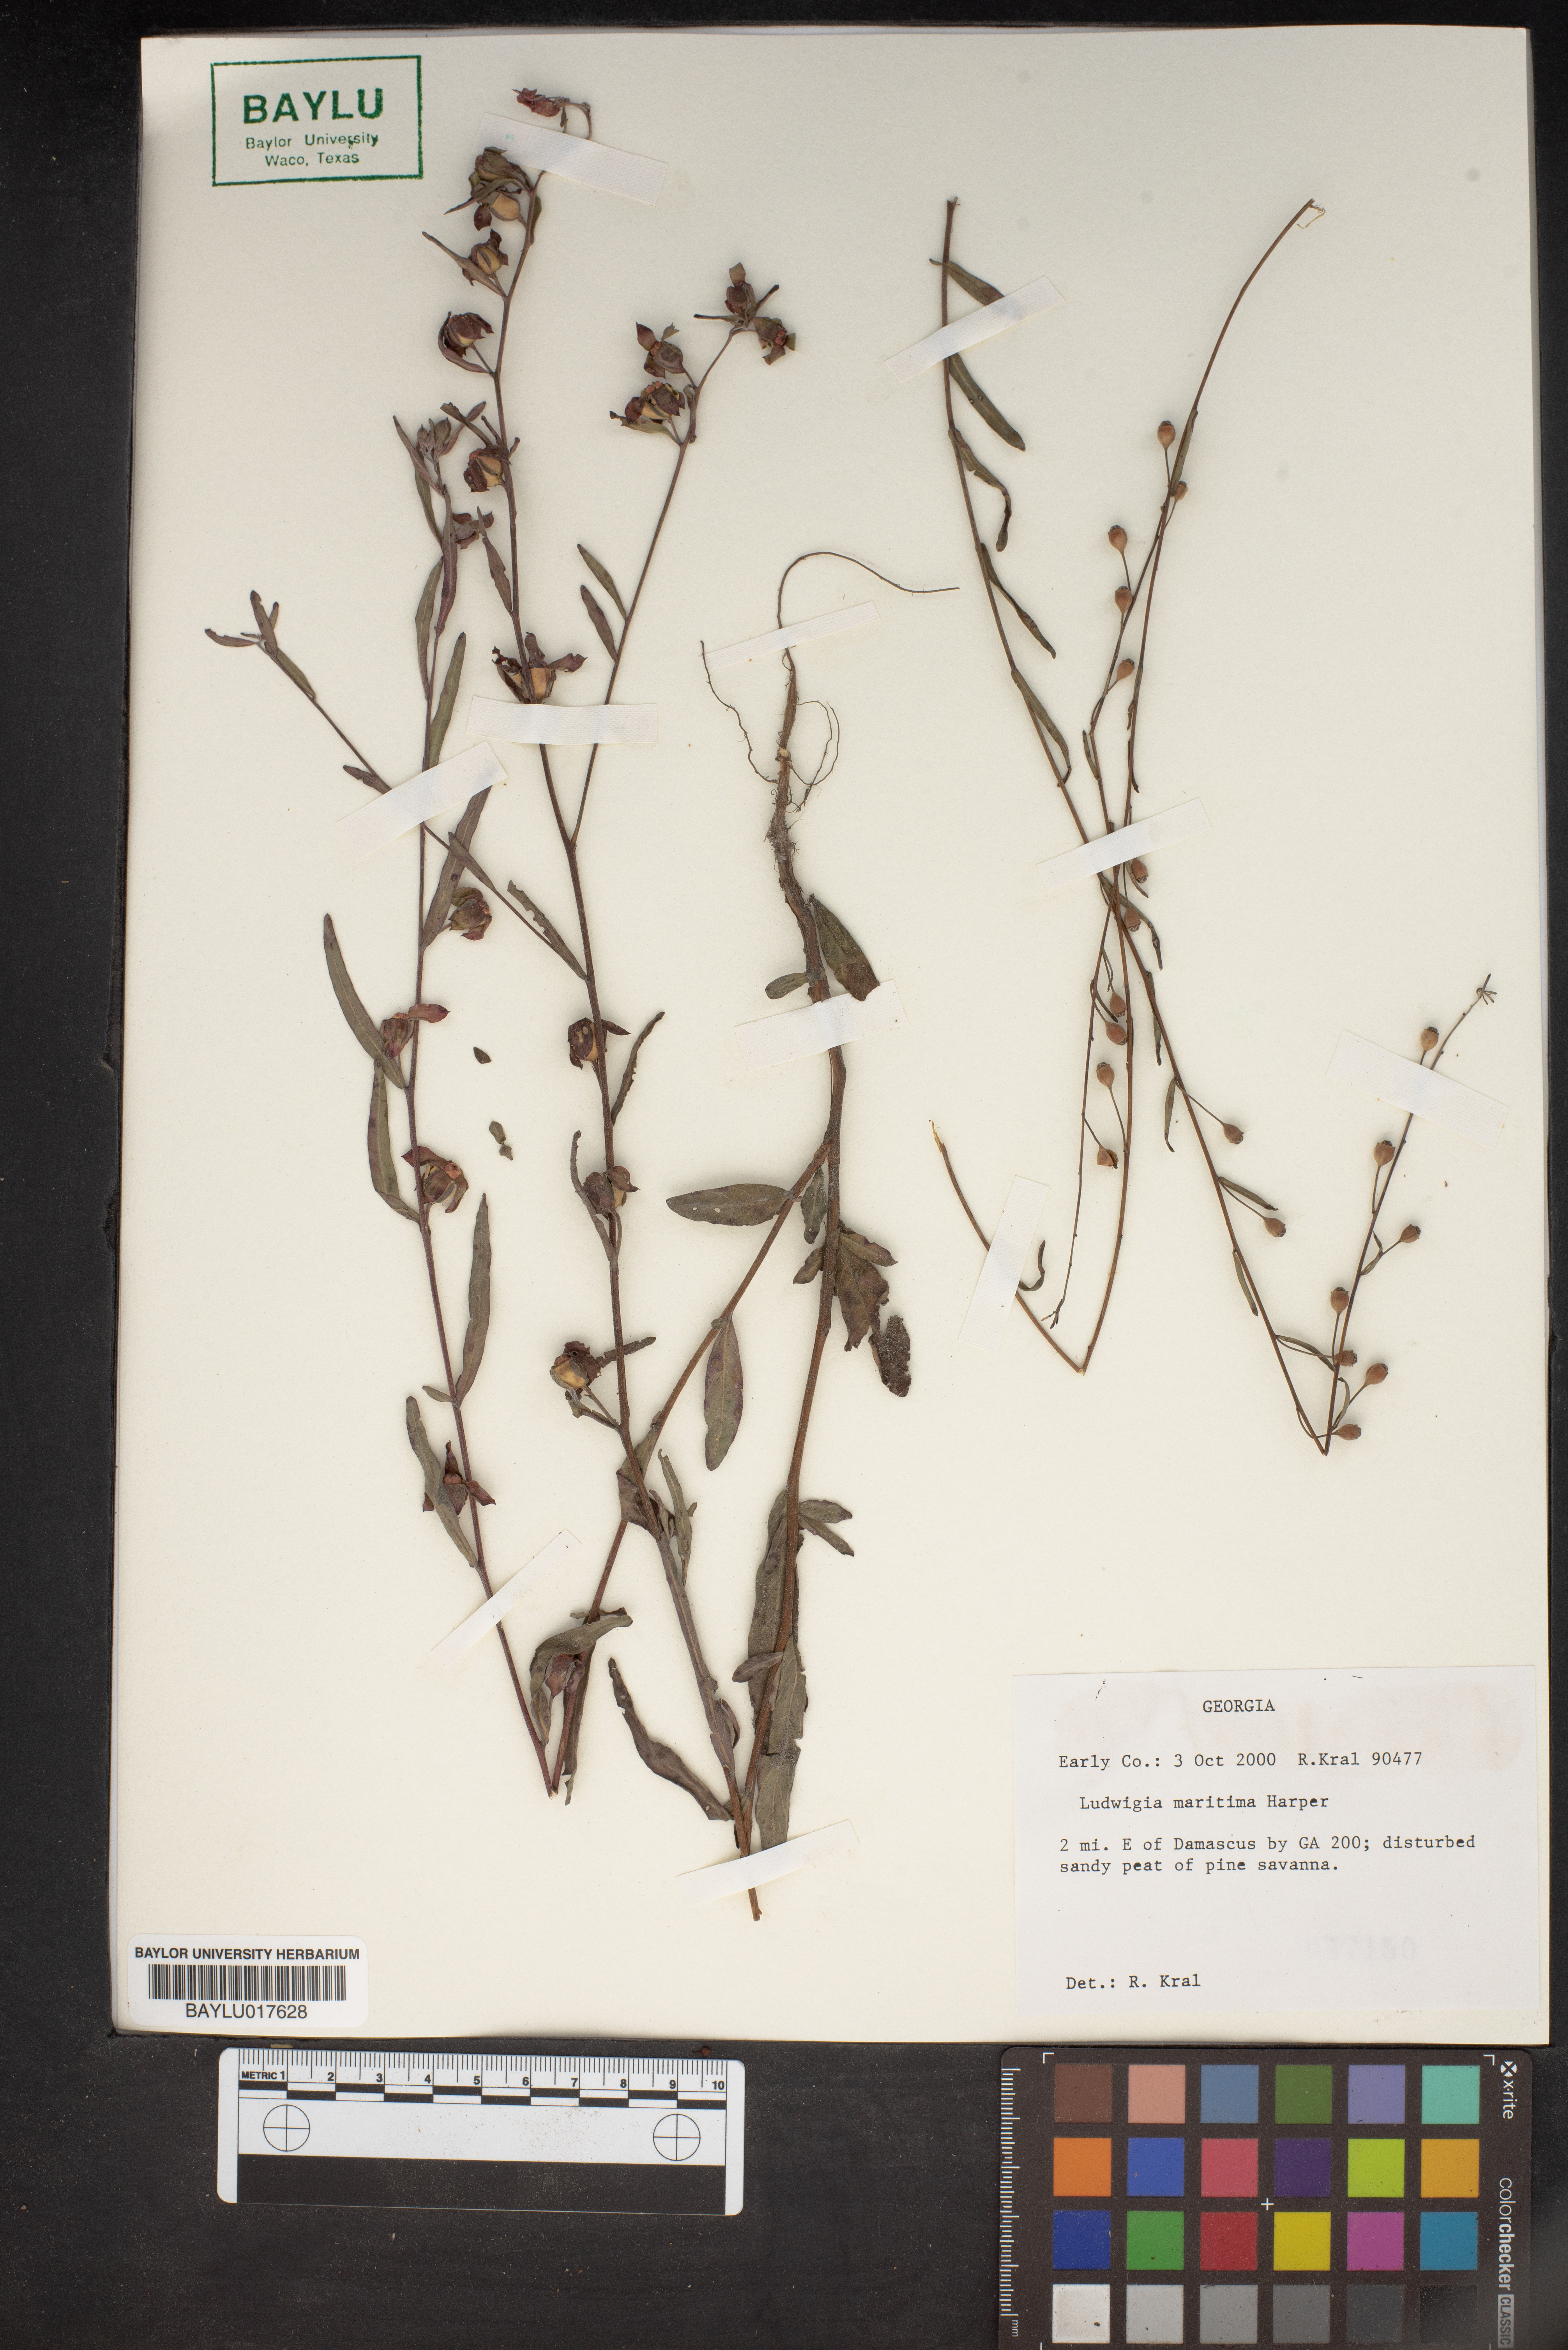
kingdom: Plantae
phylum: Tracheophyta
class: Magnoliopsida
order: Myrtales
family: Onagraceae
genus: Ludwigia
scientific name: Ludwigia maritima
